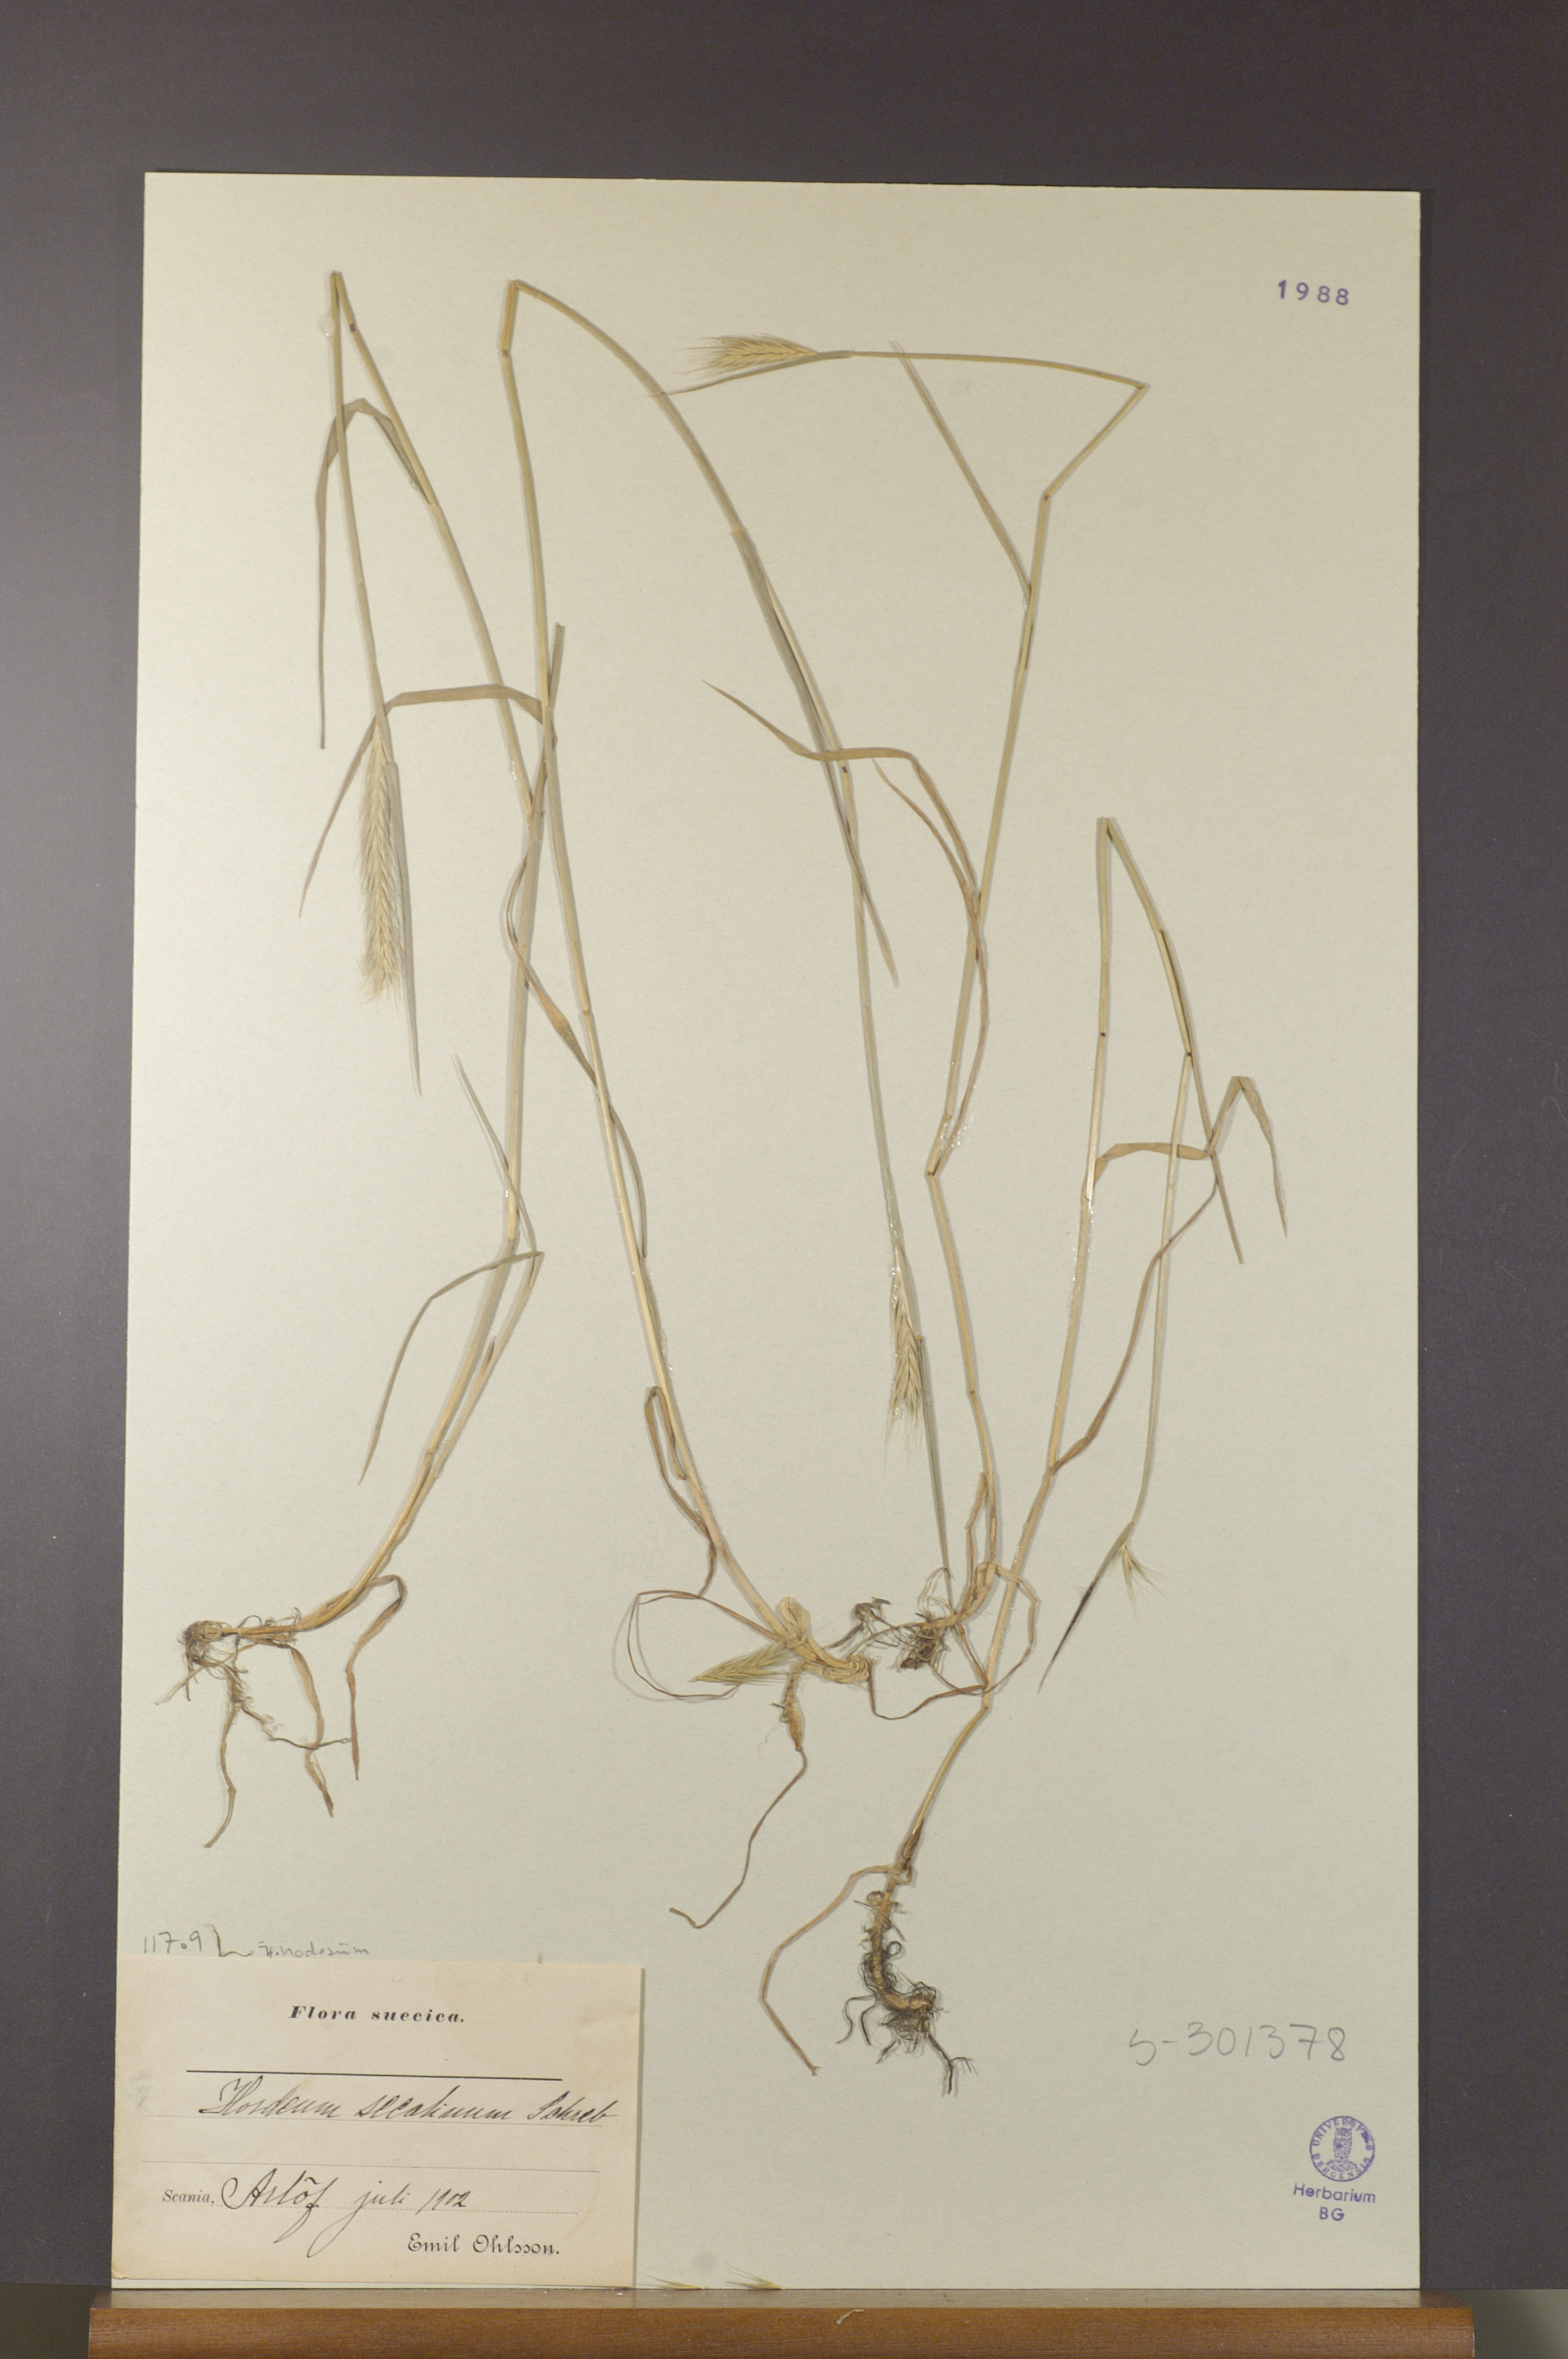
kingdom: Plantae
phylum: Tracheophyta
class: Liliopsida
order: Poales
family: Poaceae
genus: Hordeum
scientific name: Hordeum secalinum
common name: Meadow barley
